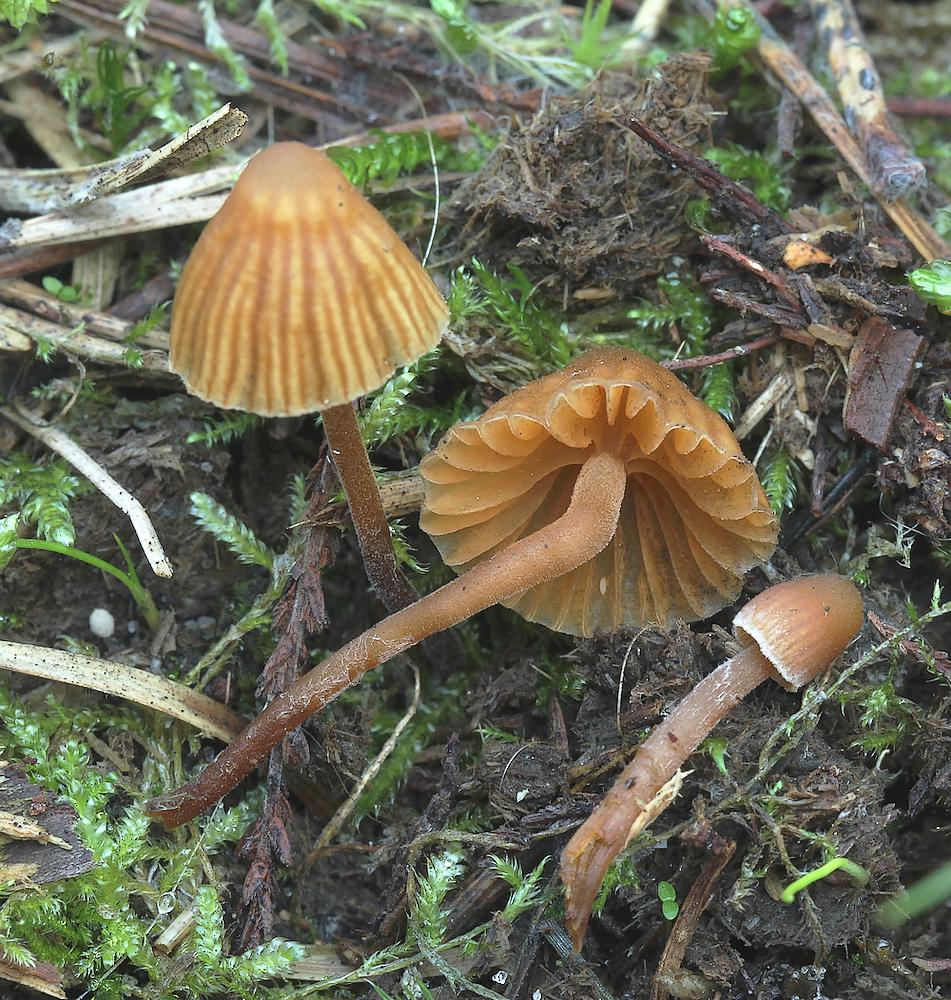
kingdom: Fungi
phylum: Basidiomycota
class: Agaricomycetes
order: Agaricales
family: Hymenogastraceae
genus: Galerina
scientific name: Galerina atkinsoniana
